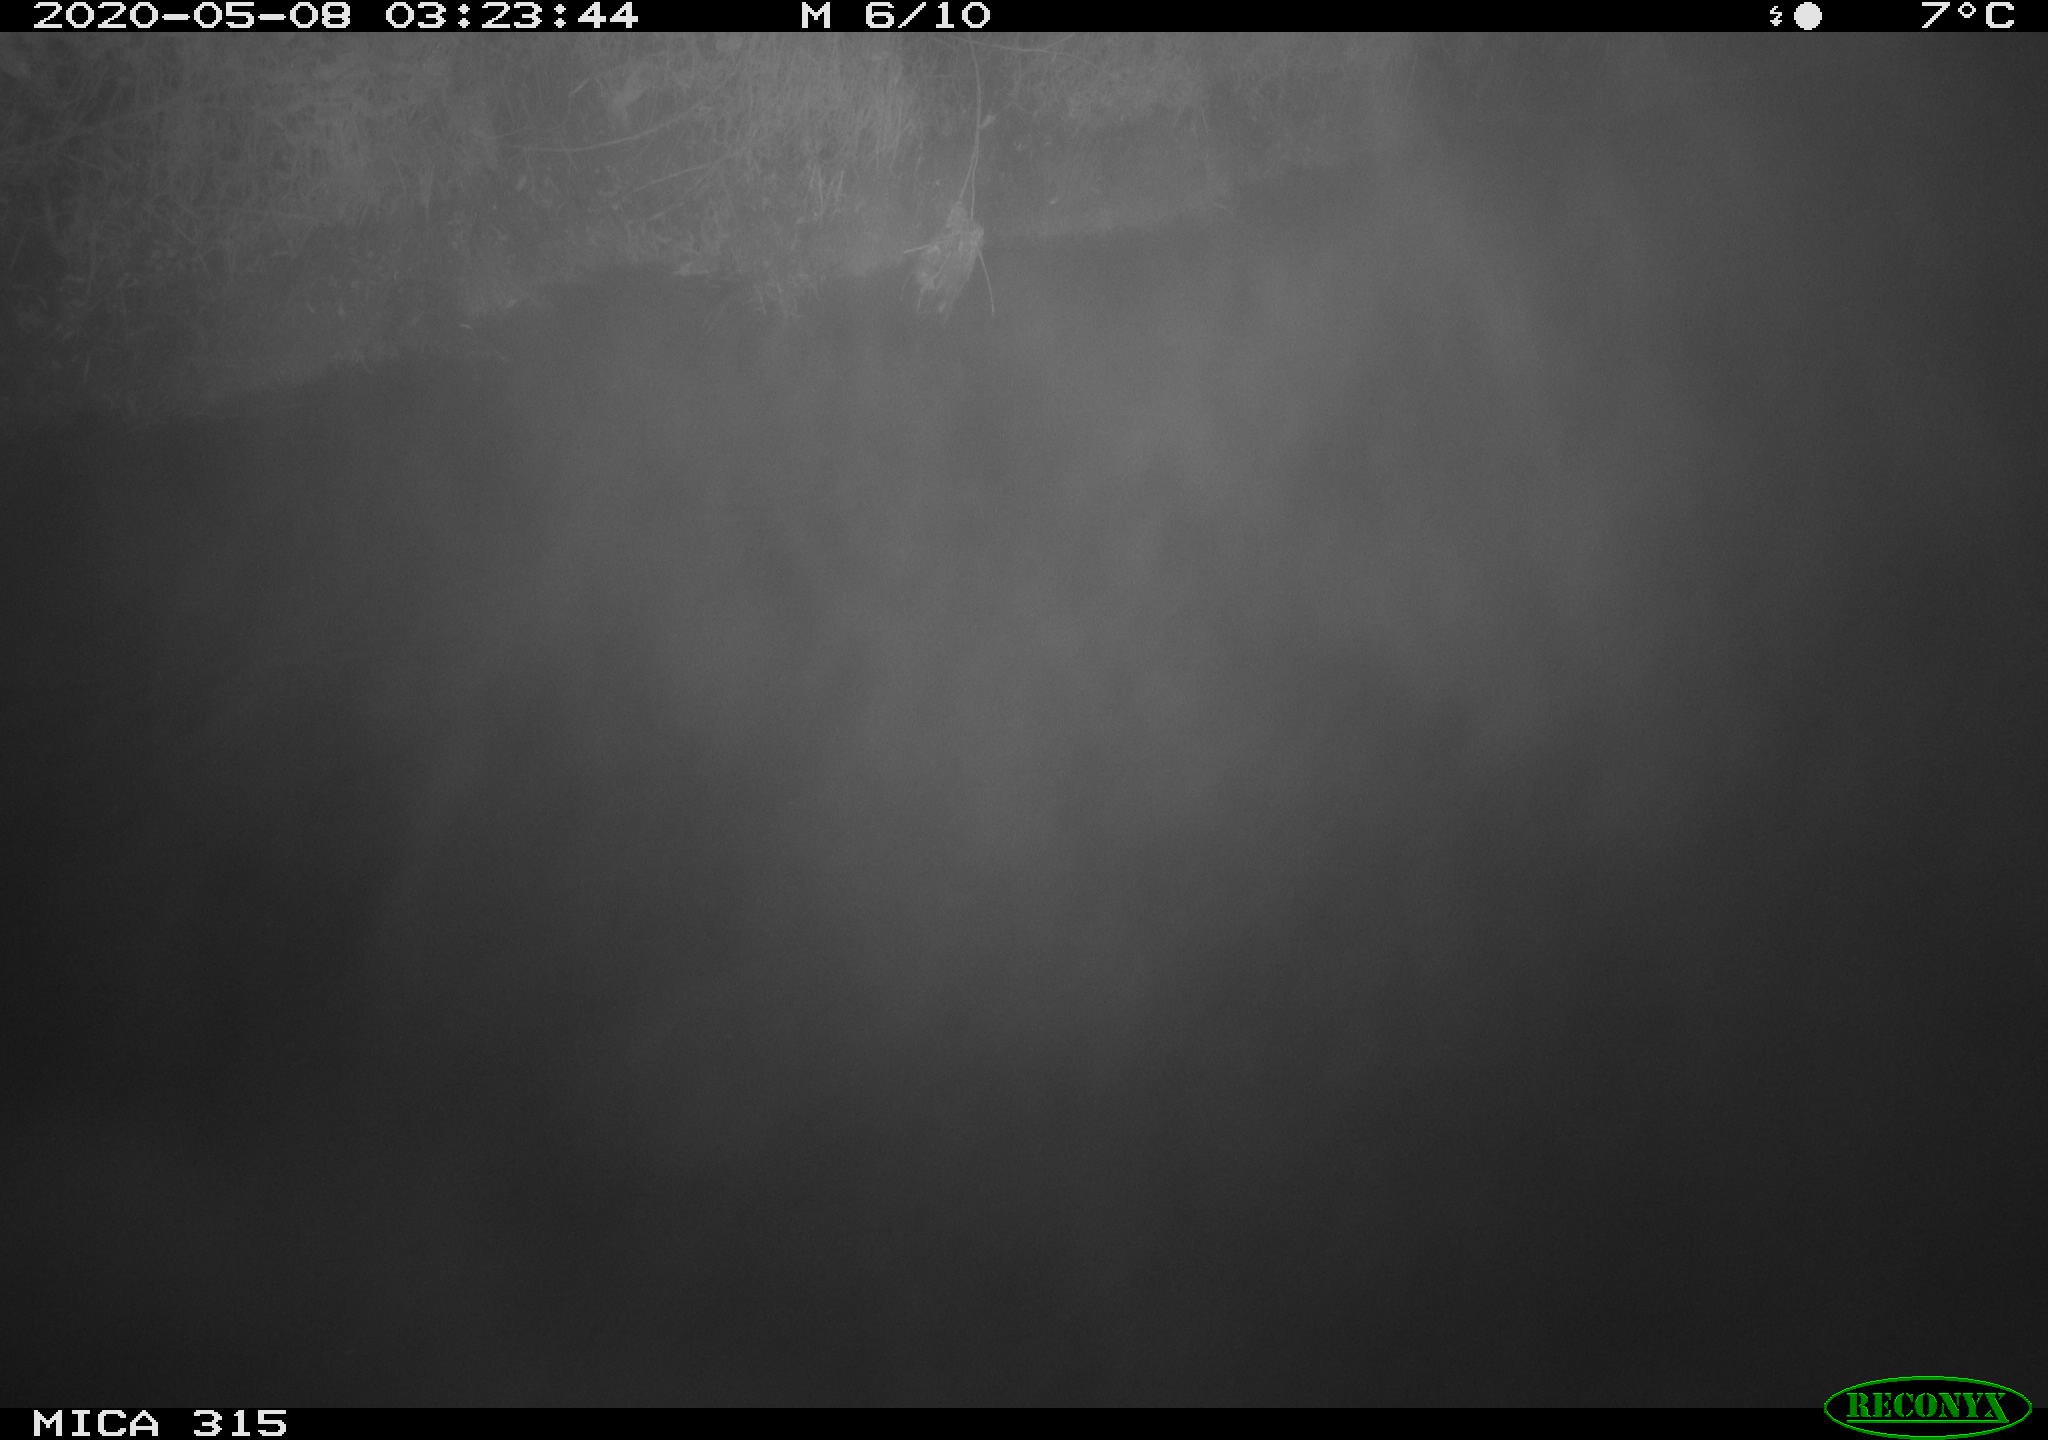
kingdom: Animalia
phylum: Chordata
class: Aves
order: Anseriformes
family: Anatidae
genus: Anas
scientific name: Anas platyrhynchos
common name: Mallard
